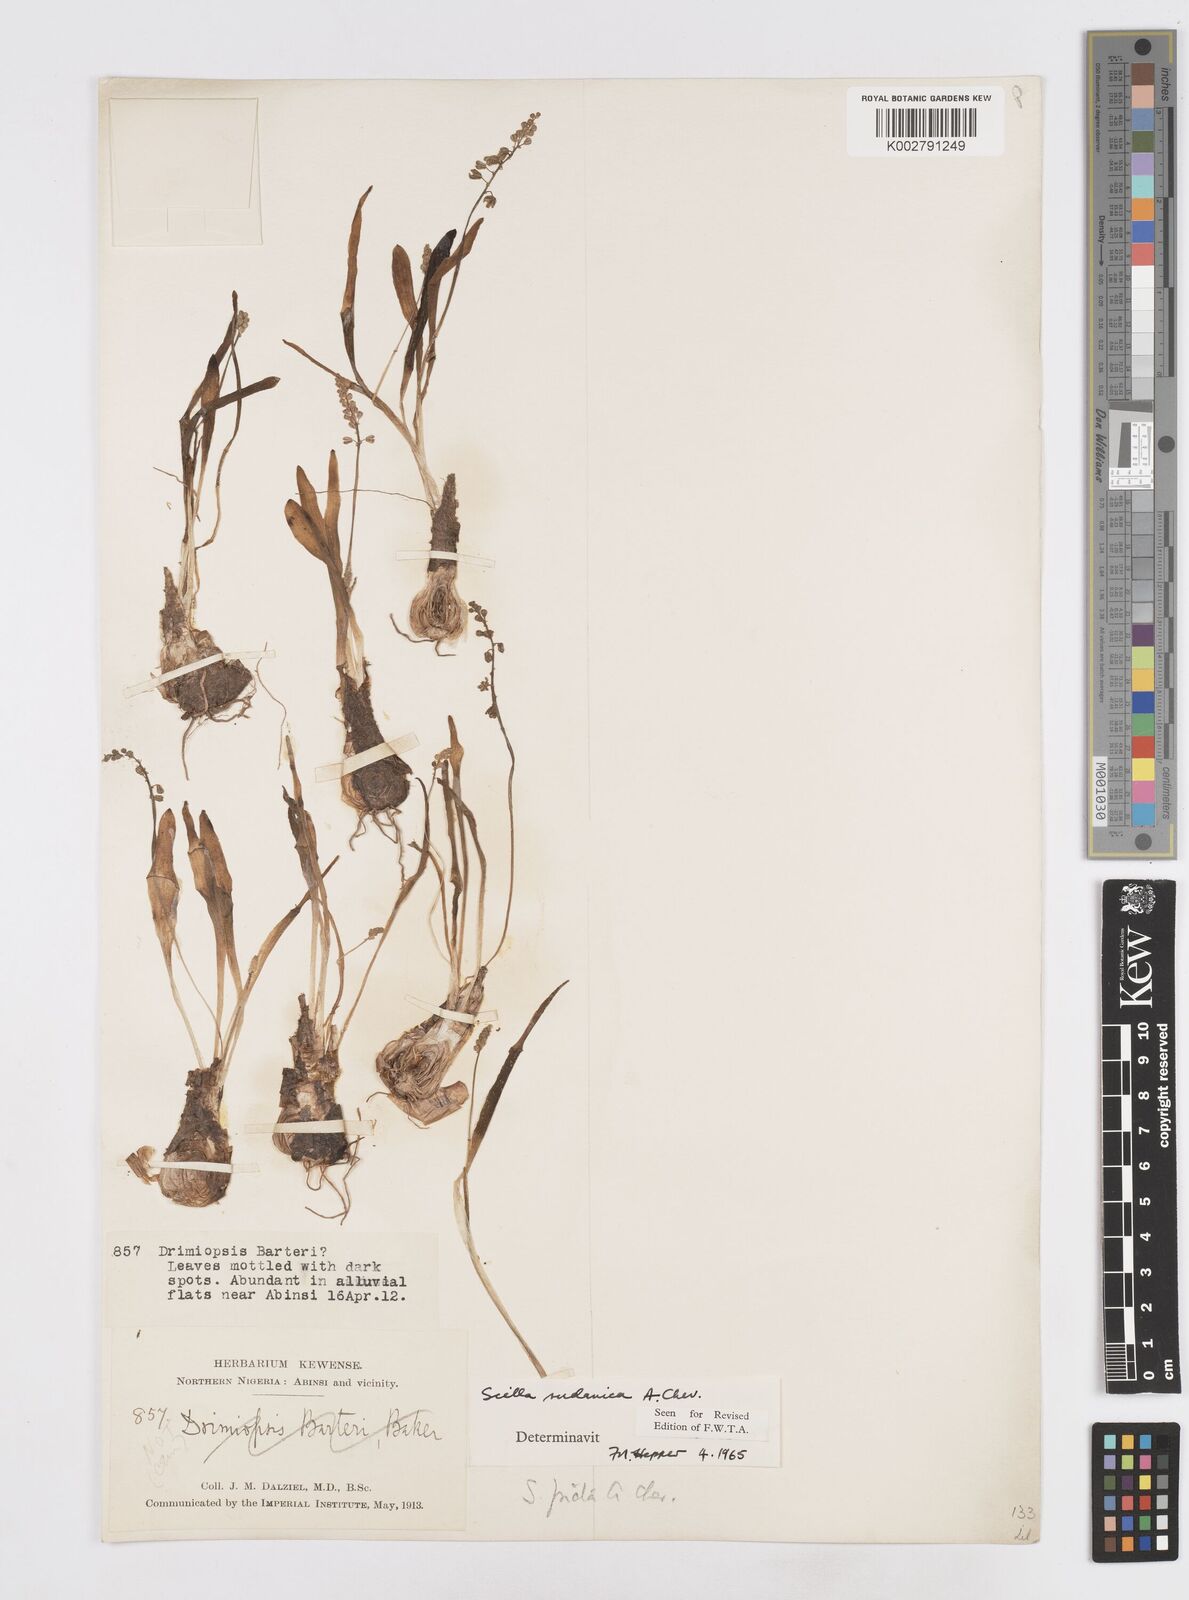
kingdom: Plantae
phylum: Tracheophyta
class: Liliopsida
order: Asparagales
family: Asparagaceae
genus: Ledebouria
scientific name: Ledebouria sudanica
